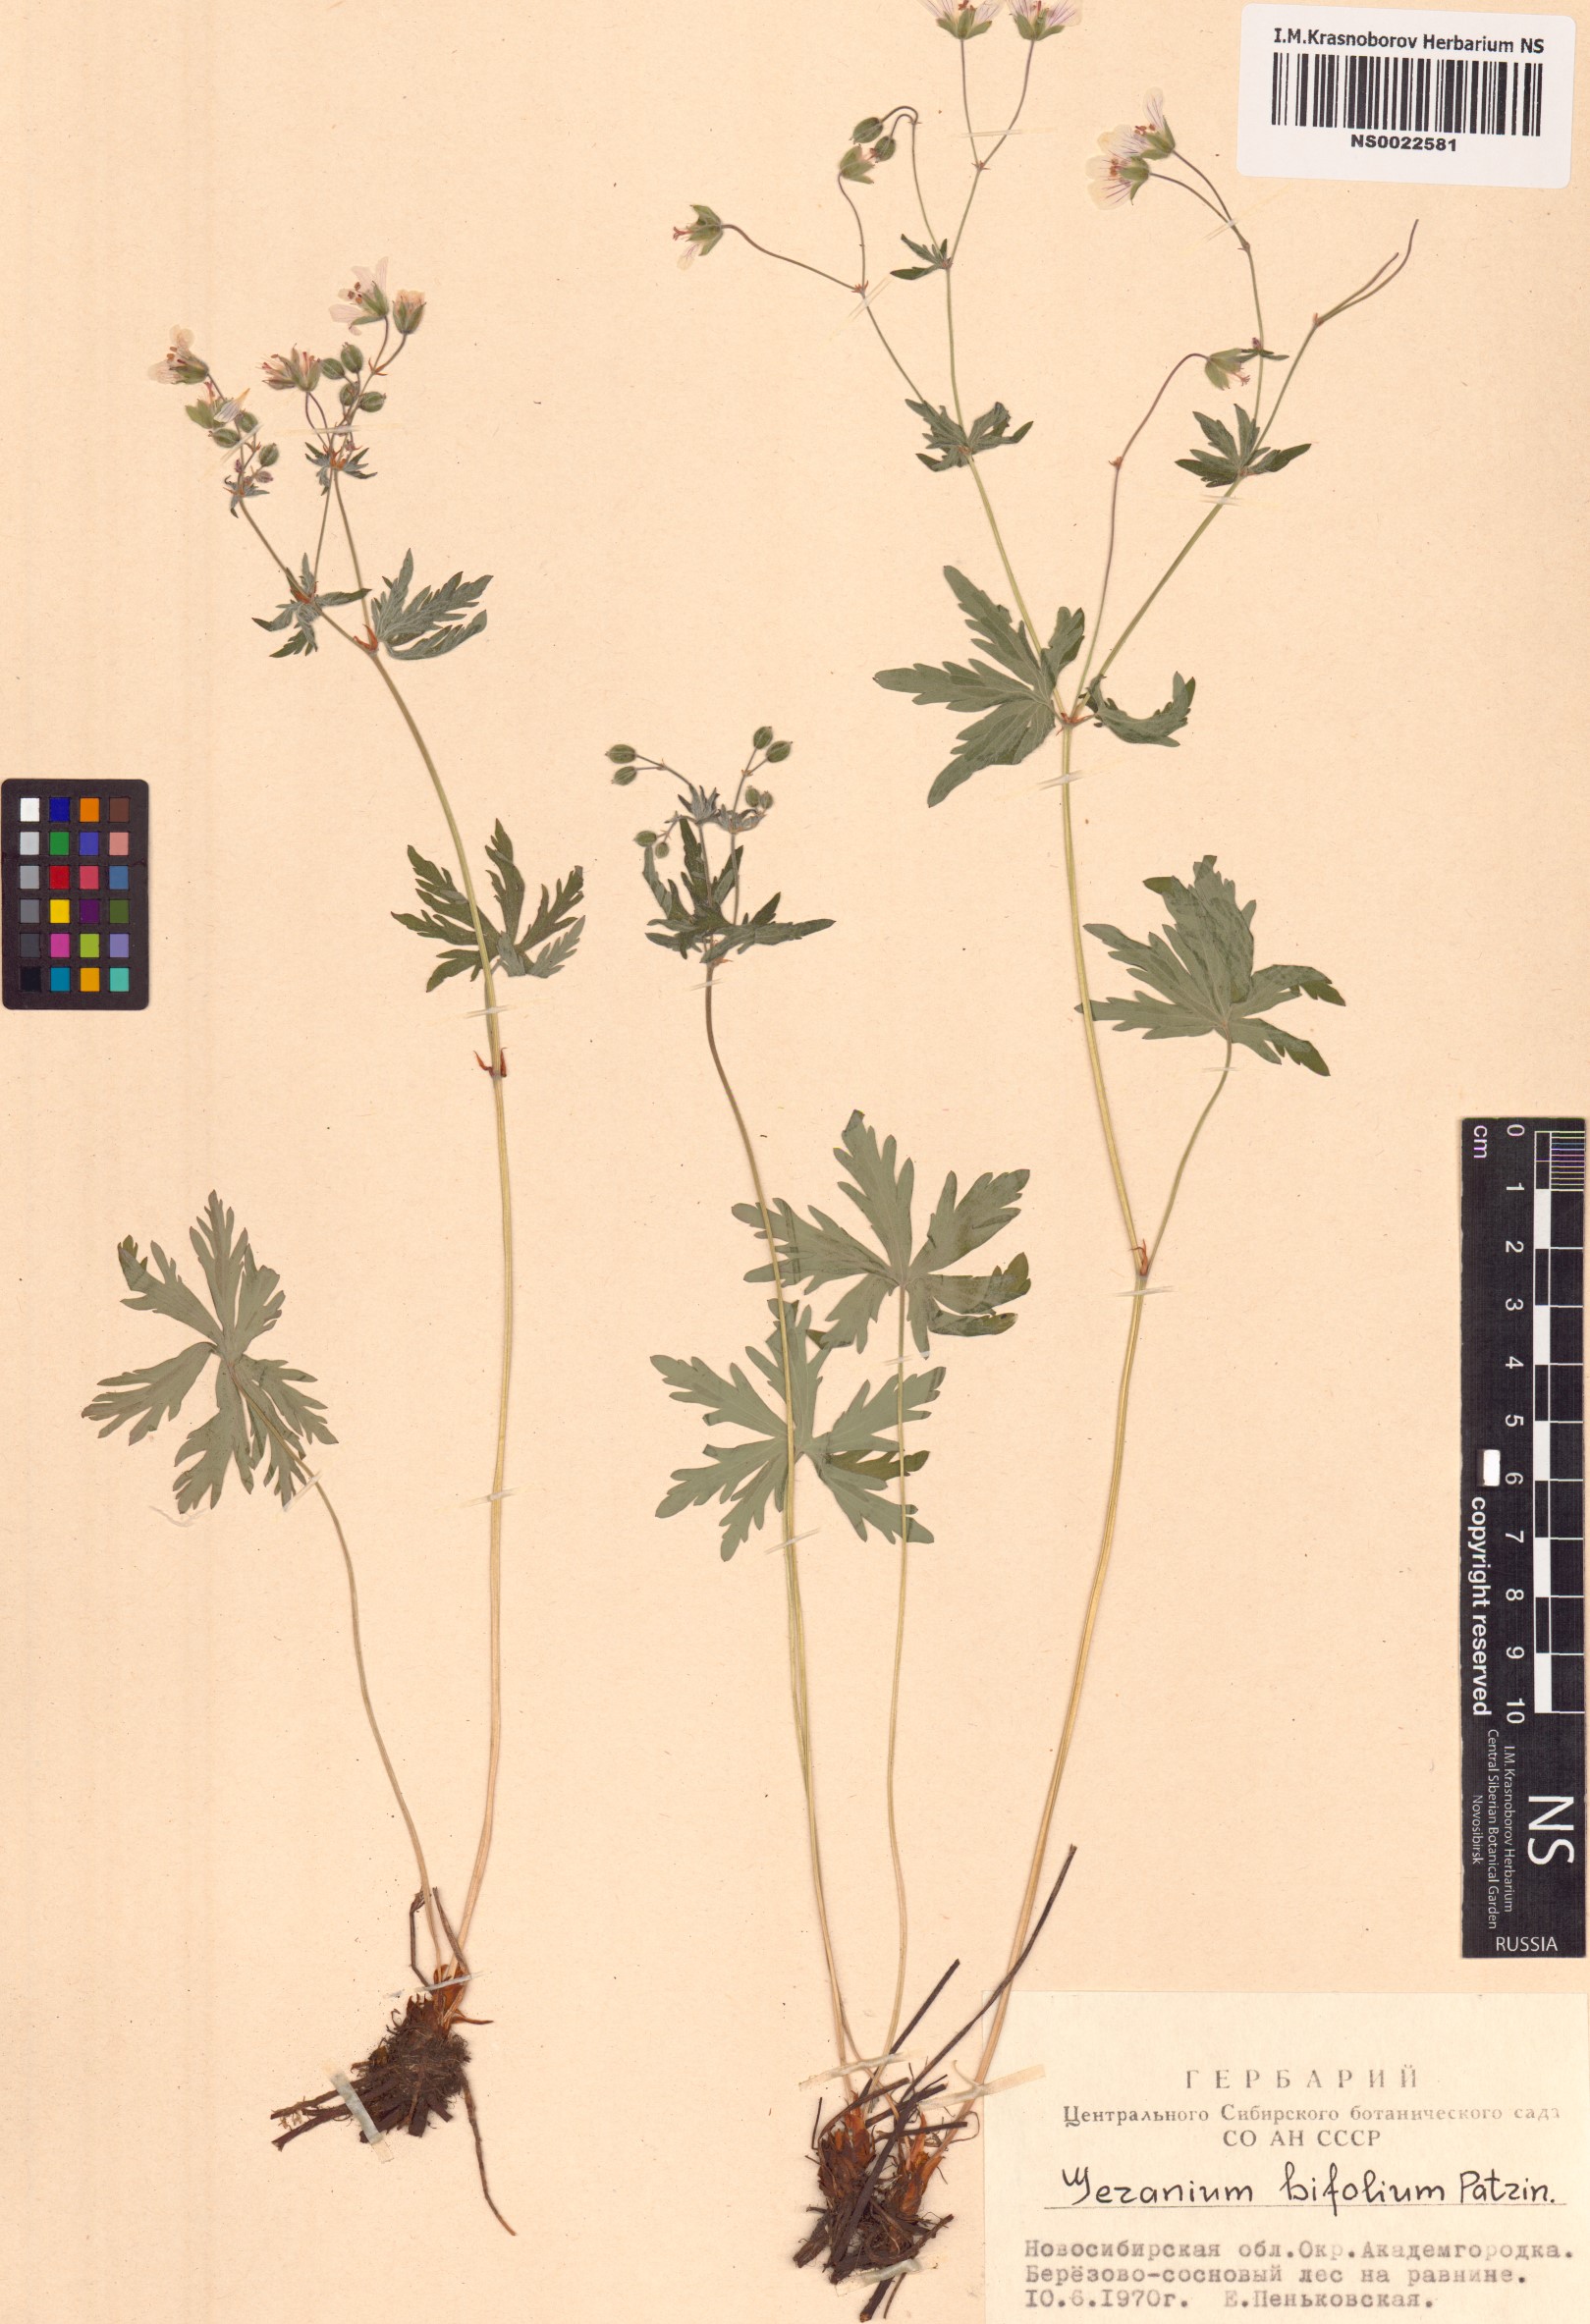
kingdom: Plantae
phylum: Tracheophyta
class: Magnoliopsida
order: Geraniales
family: Geraniaceae
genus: Geranium
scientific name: Geranium pseudosibiricum
